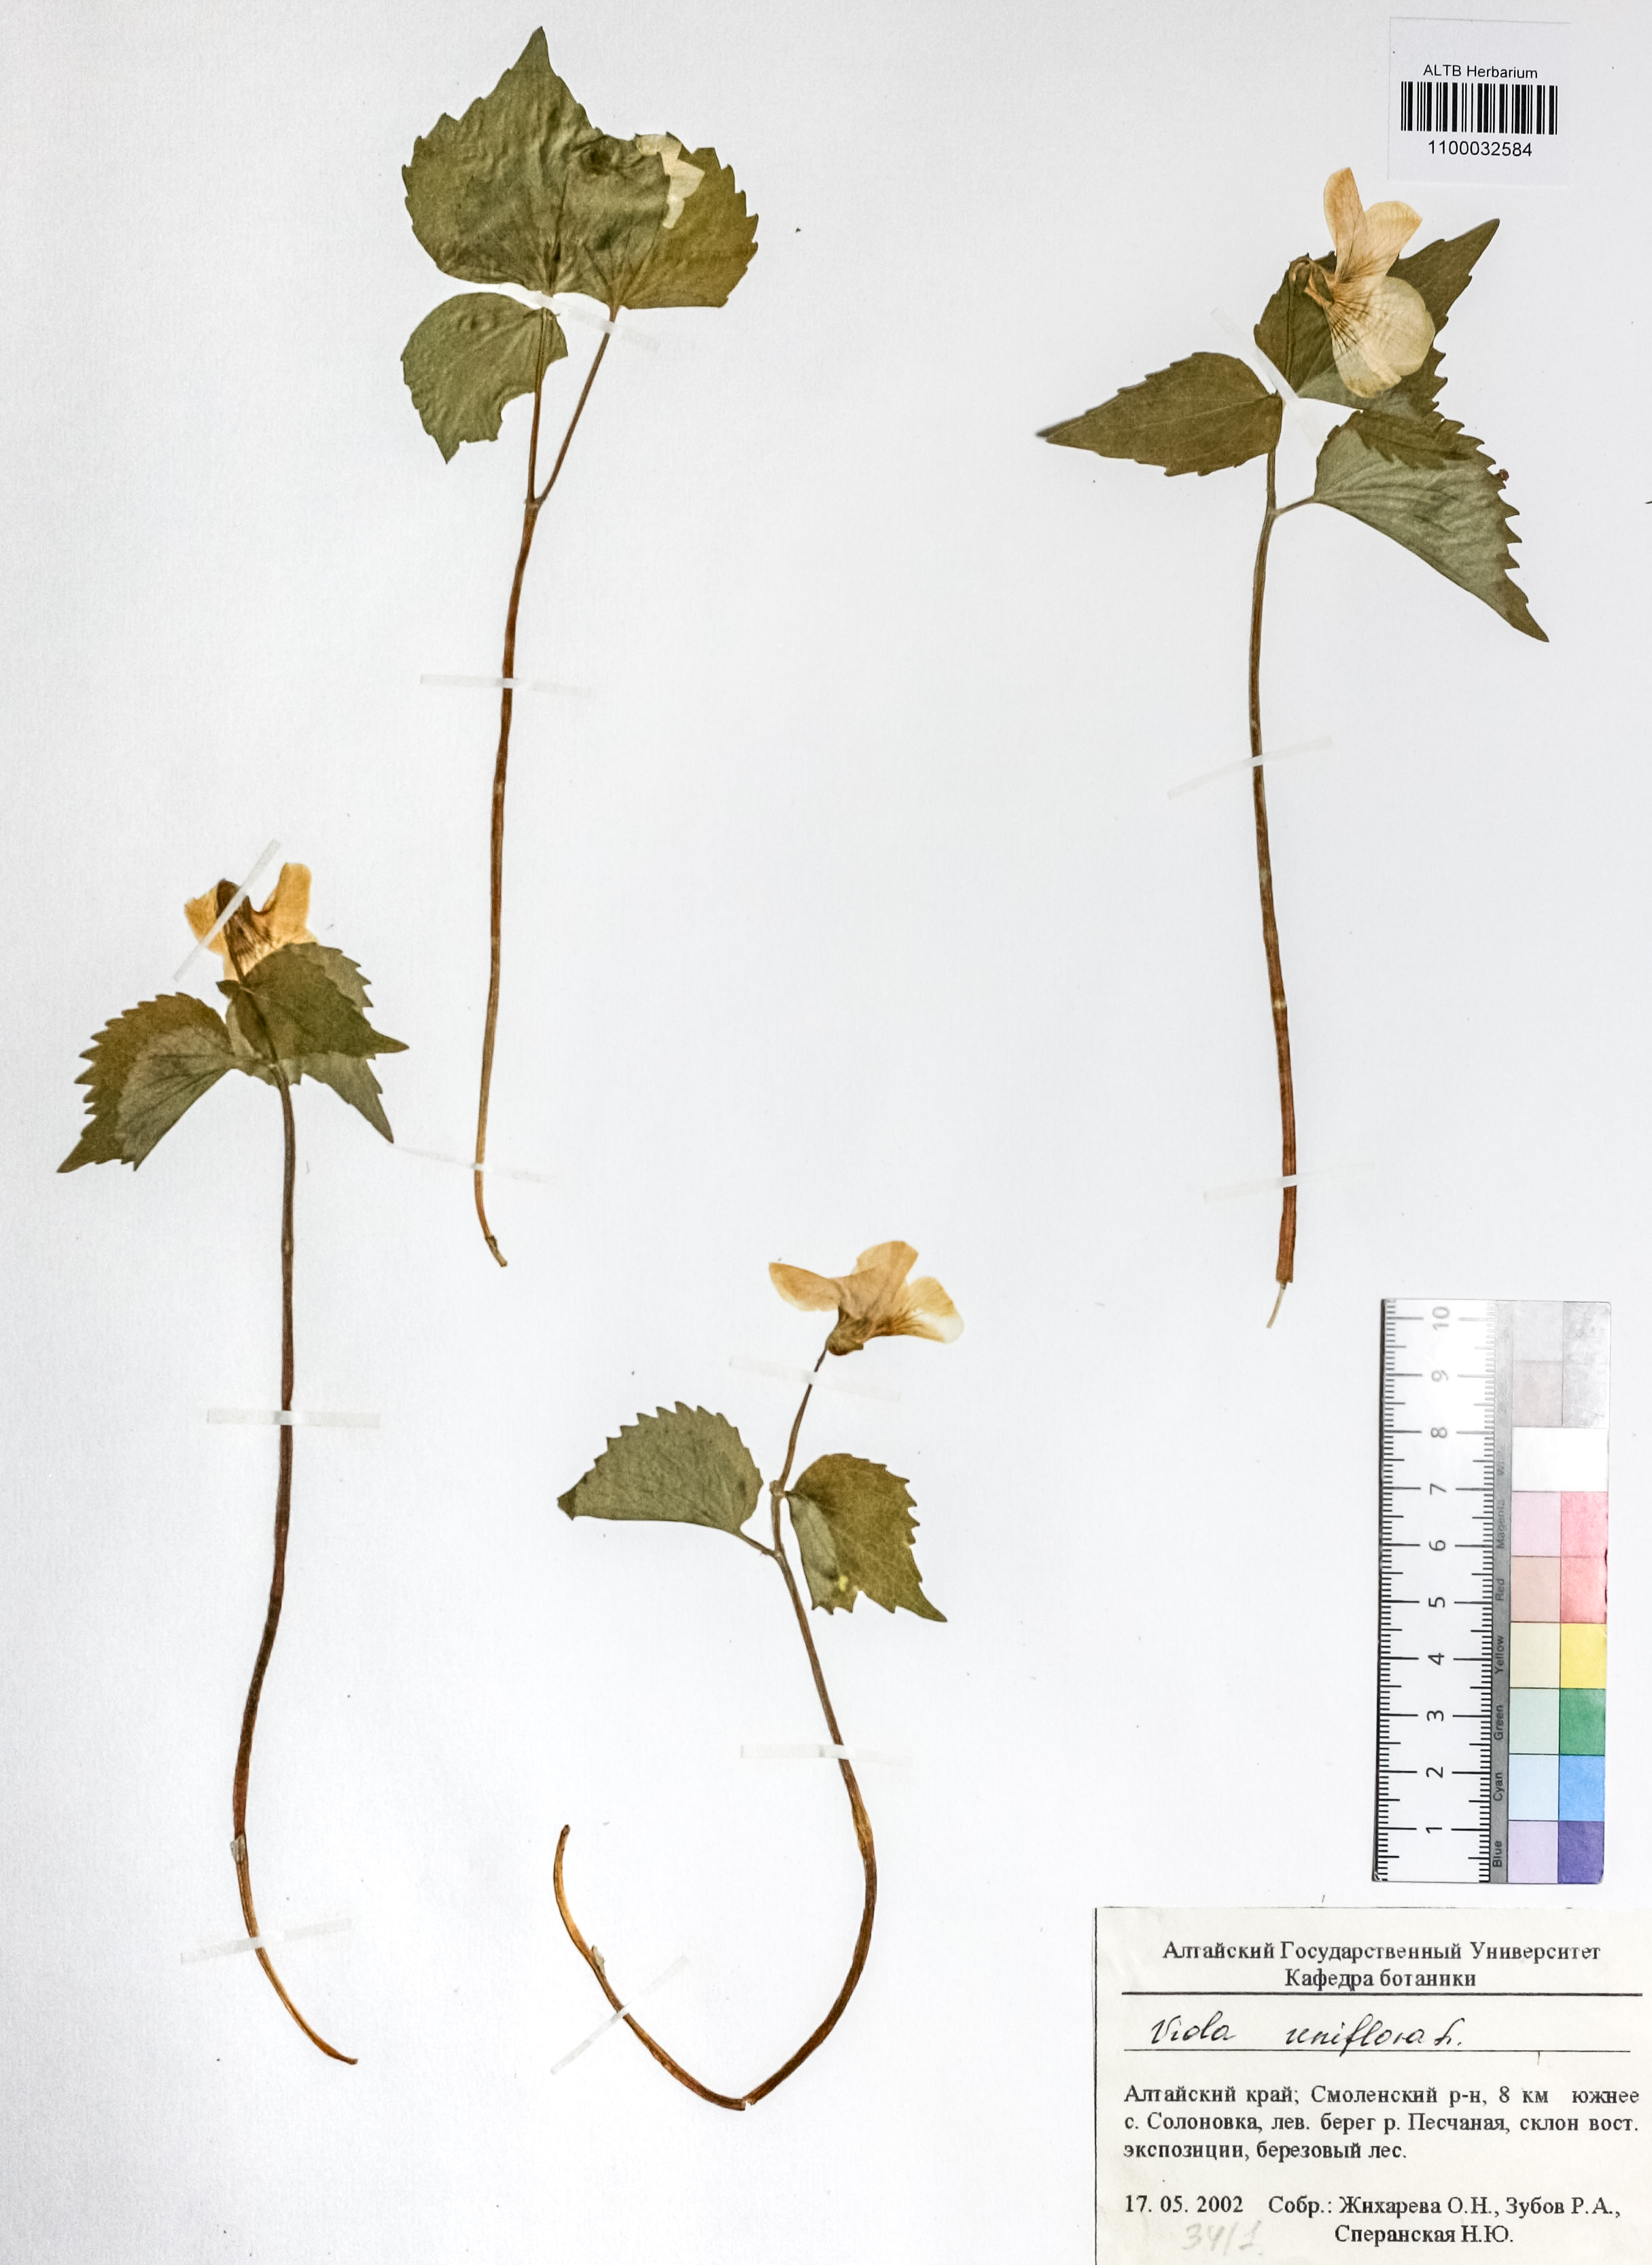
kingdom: Plantae
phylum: Tracheophyta
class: Magnoliopsida
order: Malpighiales
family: Violaceae
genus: Viola
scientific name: Viola uniflora
